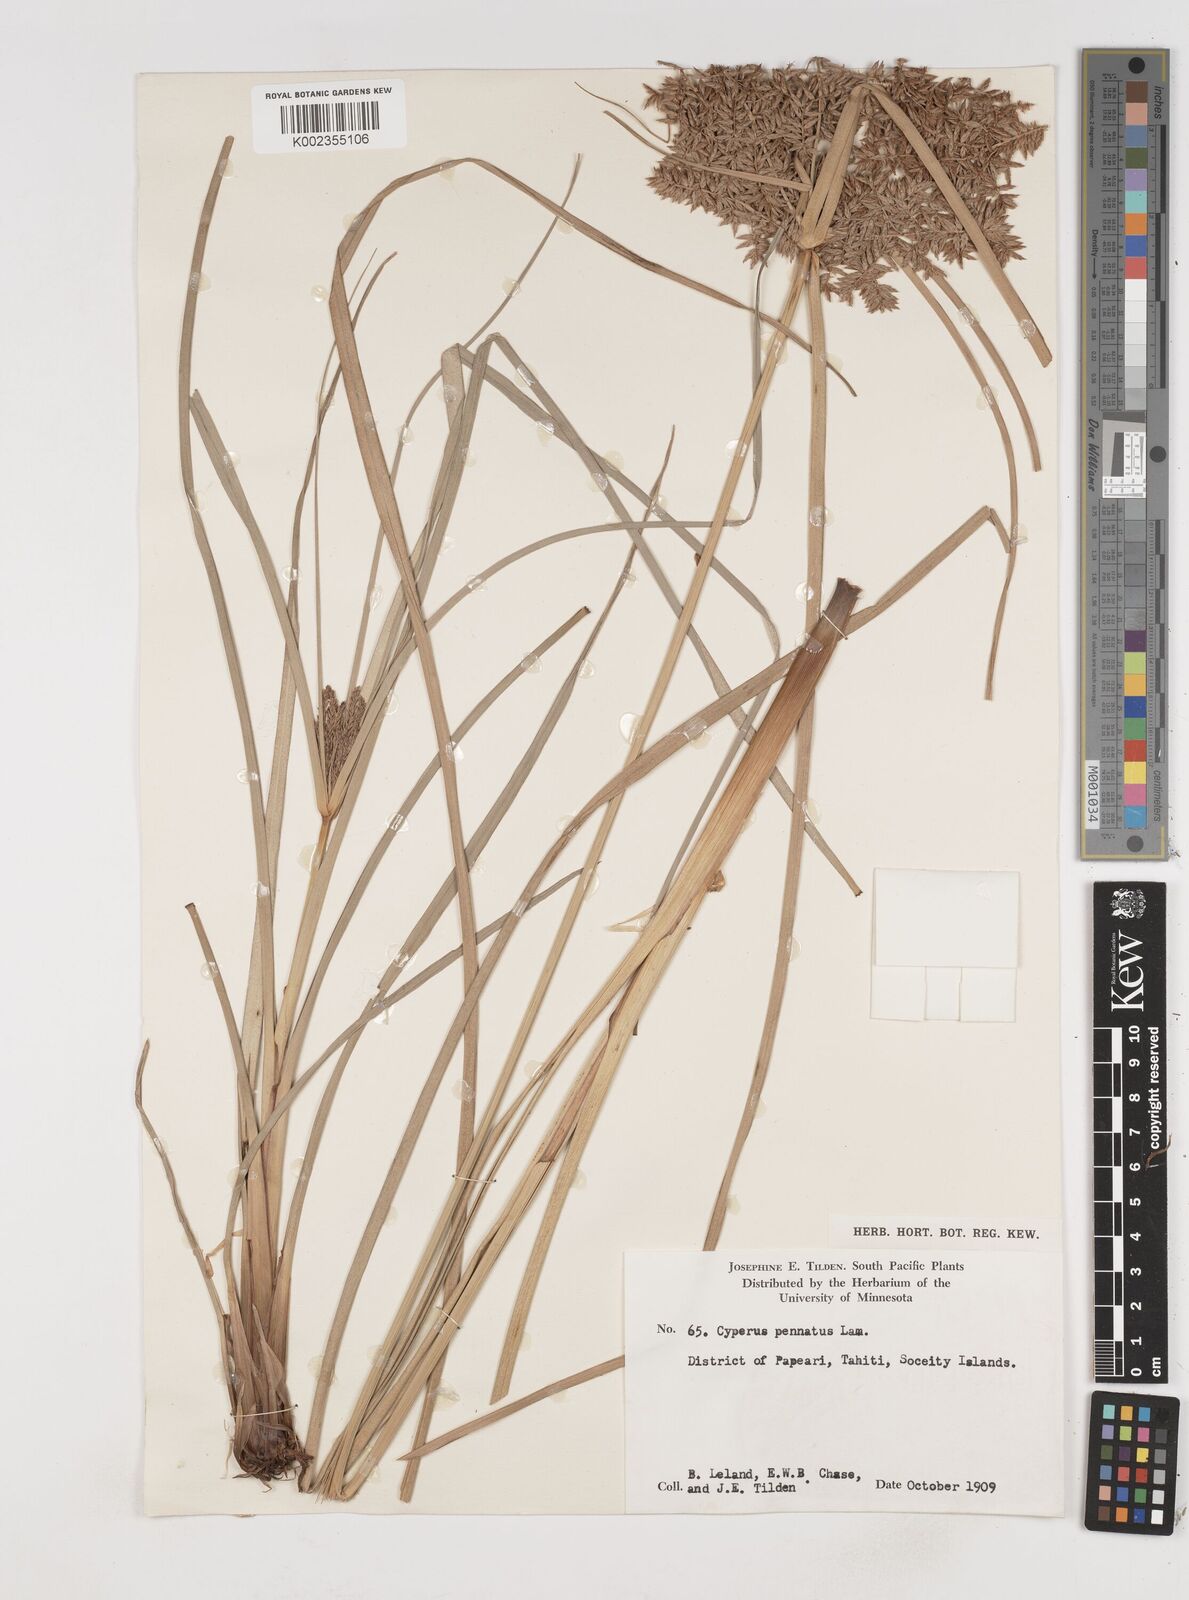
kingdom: Plantae
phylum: Tracheophyta
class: Liliopsida
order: Poales
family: Cyperaceae
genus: Cyperus
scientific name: Cyperus javanicus
